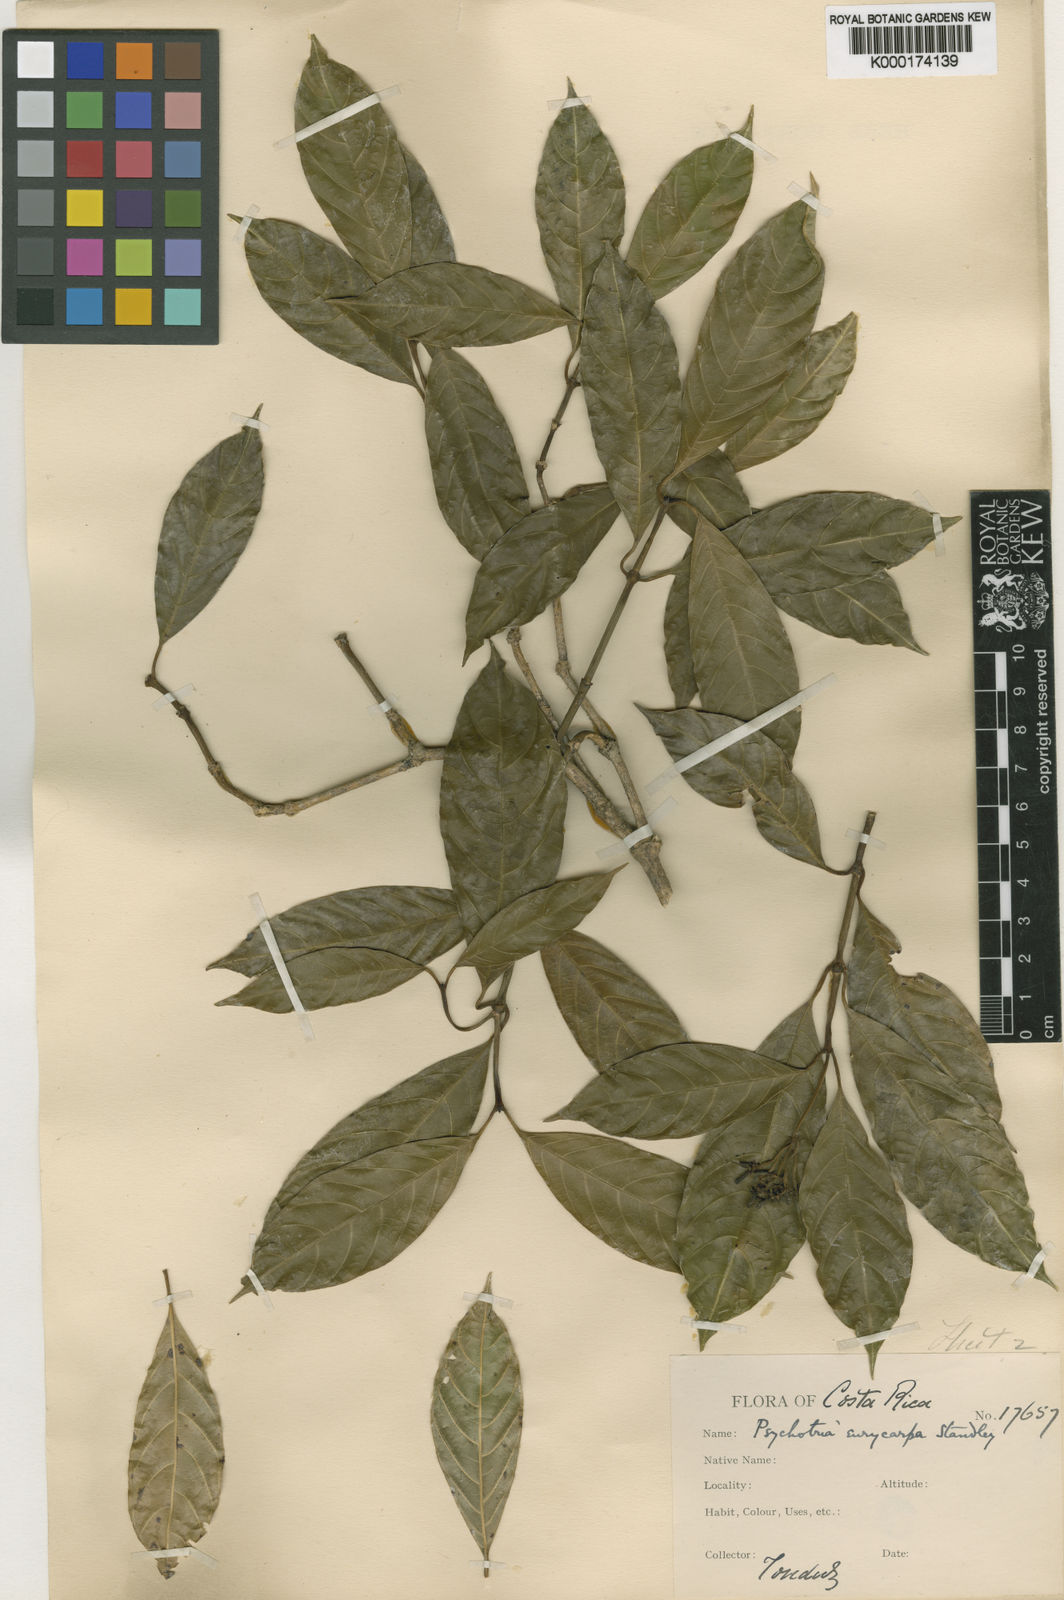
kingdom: Plantae
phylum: Tracheophyta
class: Magnoliopsida
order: Gentianales
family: Rubiaceae
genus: Palicourea
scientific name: Palicourea eurycarpa
